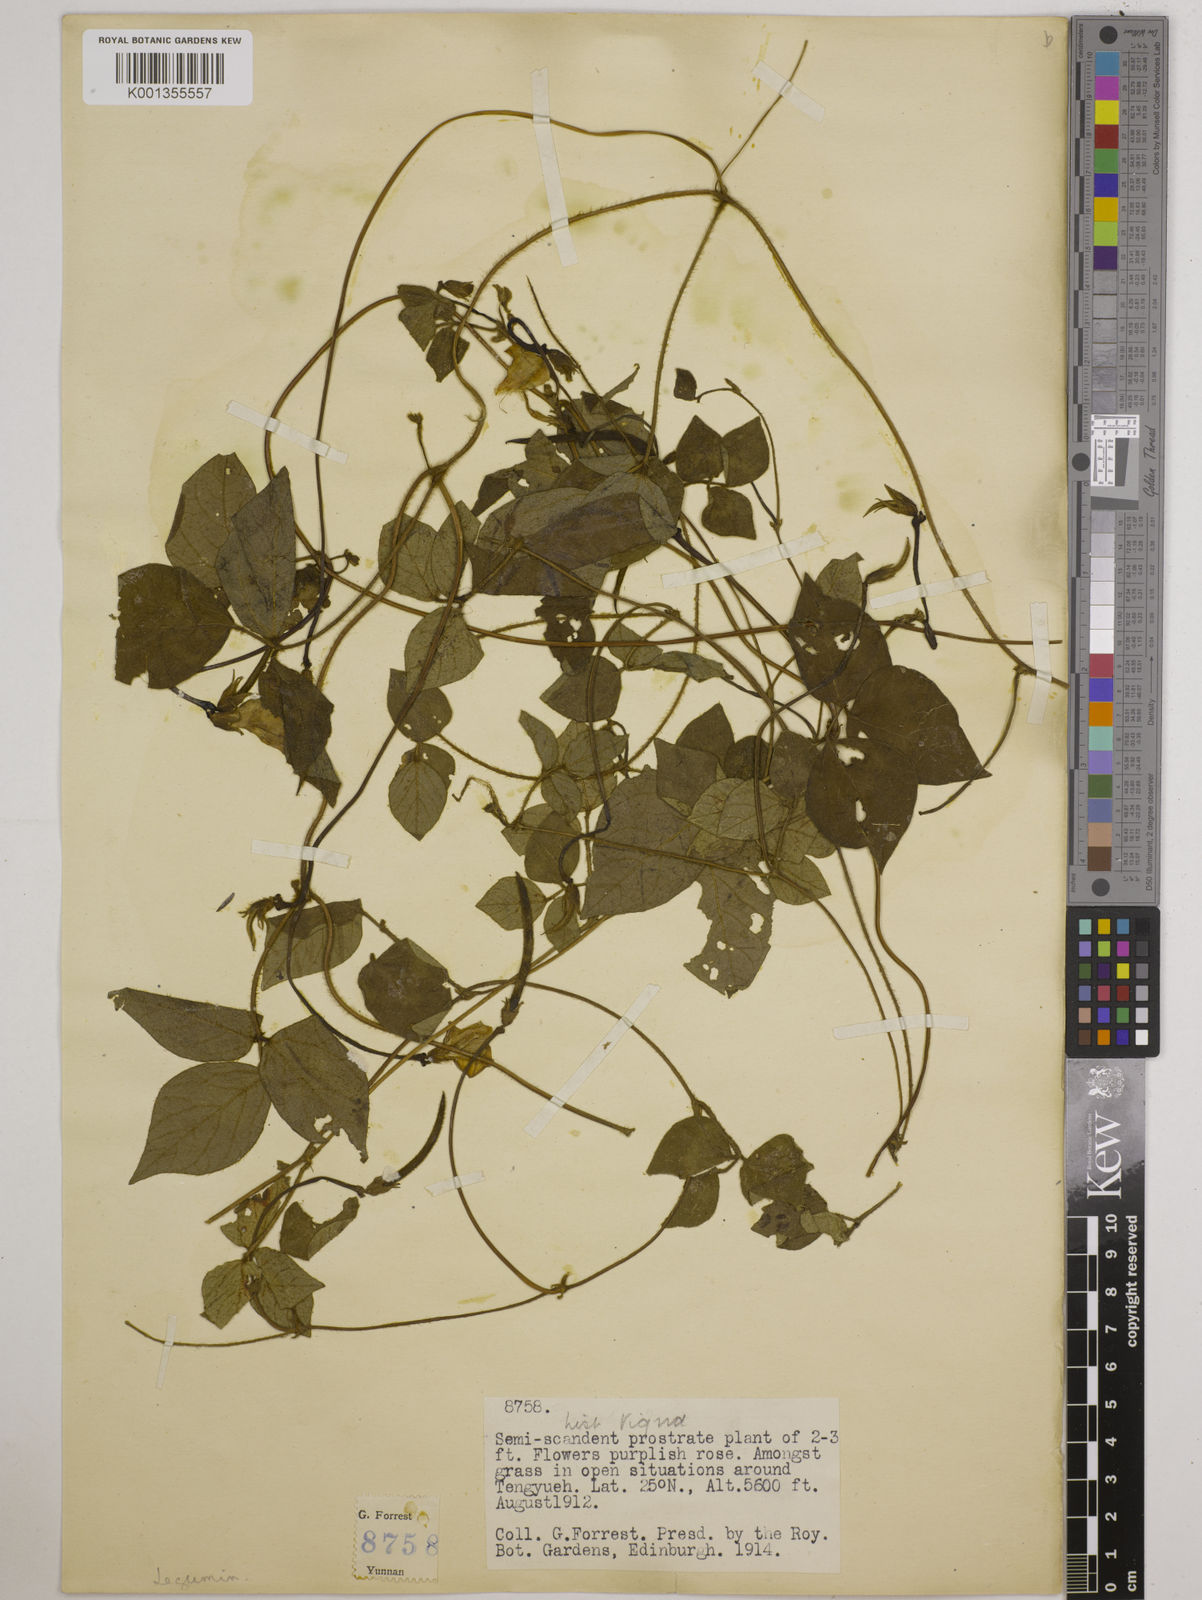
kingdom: Plantae
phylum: Tracheophyta
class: Magnoliopsida
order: Fabales
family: Fabaceae
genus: Vigna
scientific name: Vigna vexillata
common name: Zombi pea
